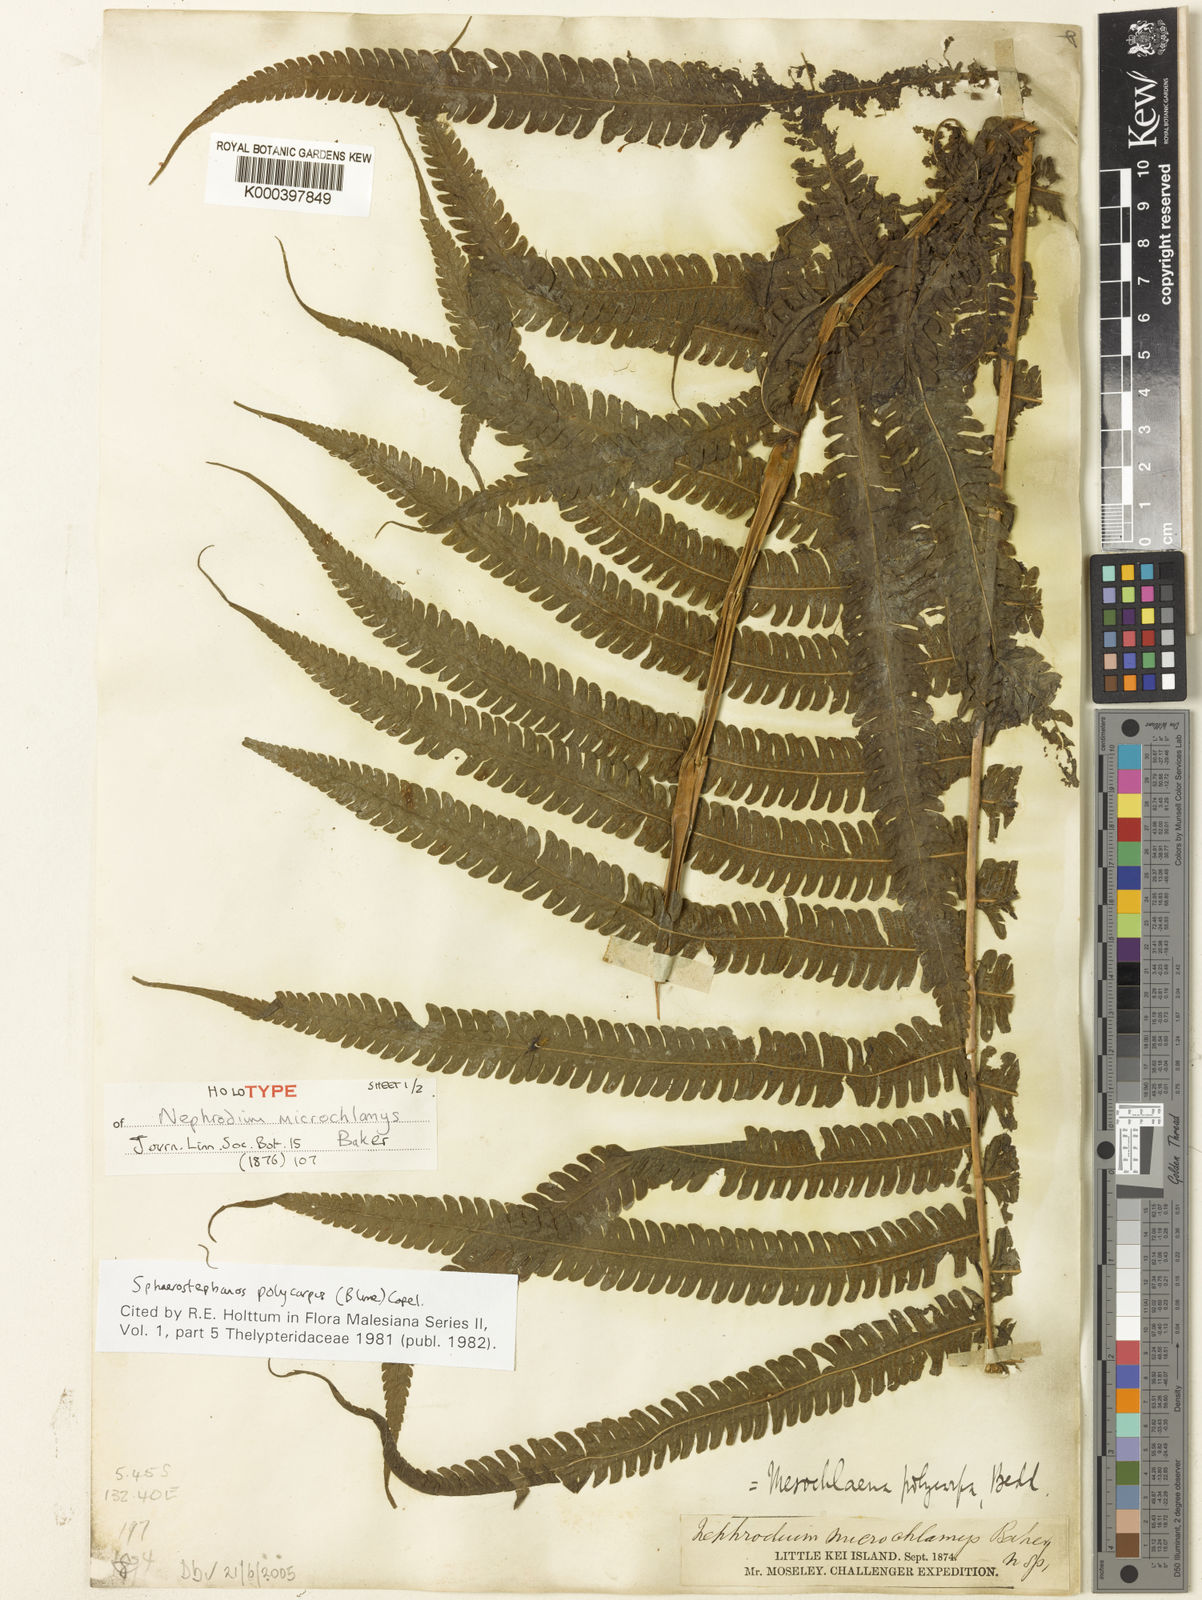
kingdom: Plantae
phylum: Tracheophyta
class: Polypodiopsida
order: Polypodiales
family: Thelypteridaceae
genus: Sphaerostephanos
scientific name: Sphaerostephanos polycarpos
